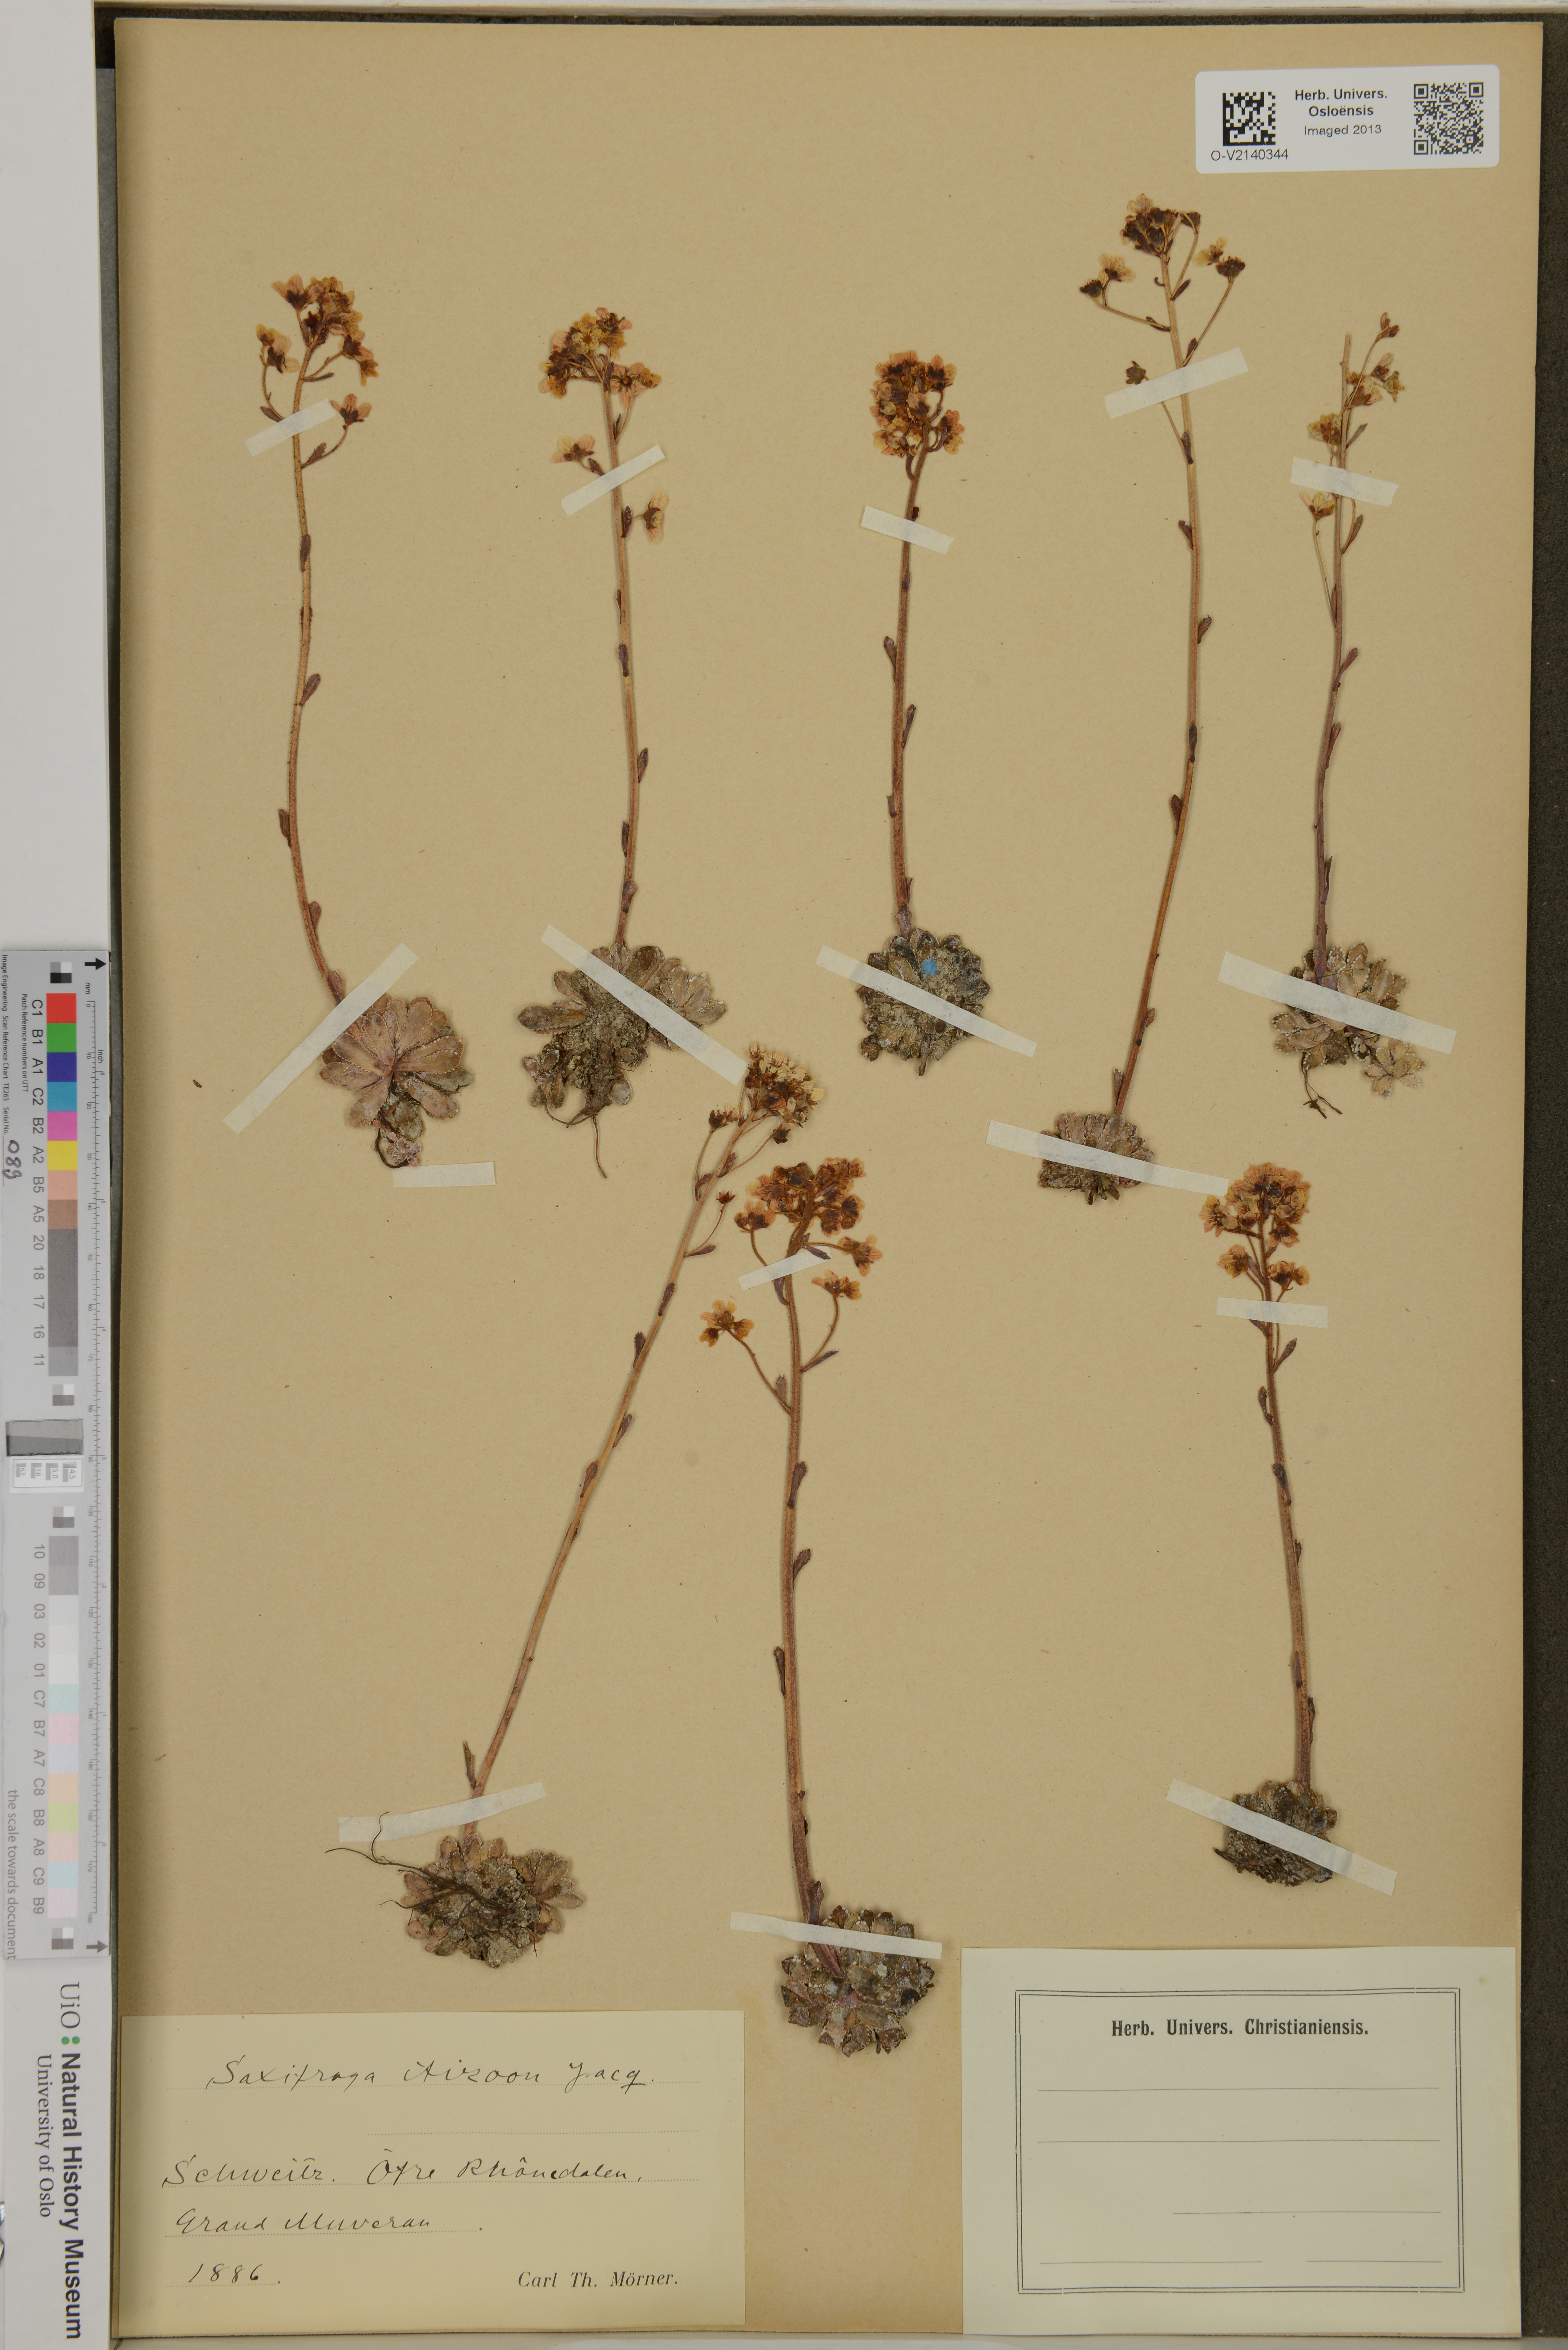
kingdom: Plantae
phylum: Tracheophyta
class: Magnoliopsida
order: Saxifragales
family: Saxifragaceae
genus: Saxifraga
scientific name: Saxifraga paniculata
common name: Livelong saxifrage
